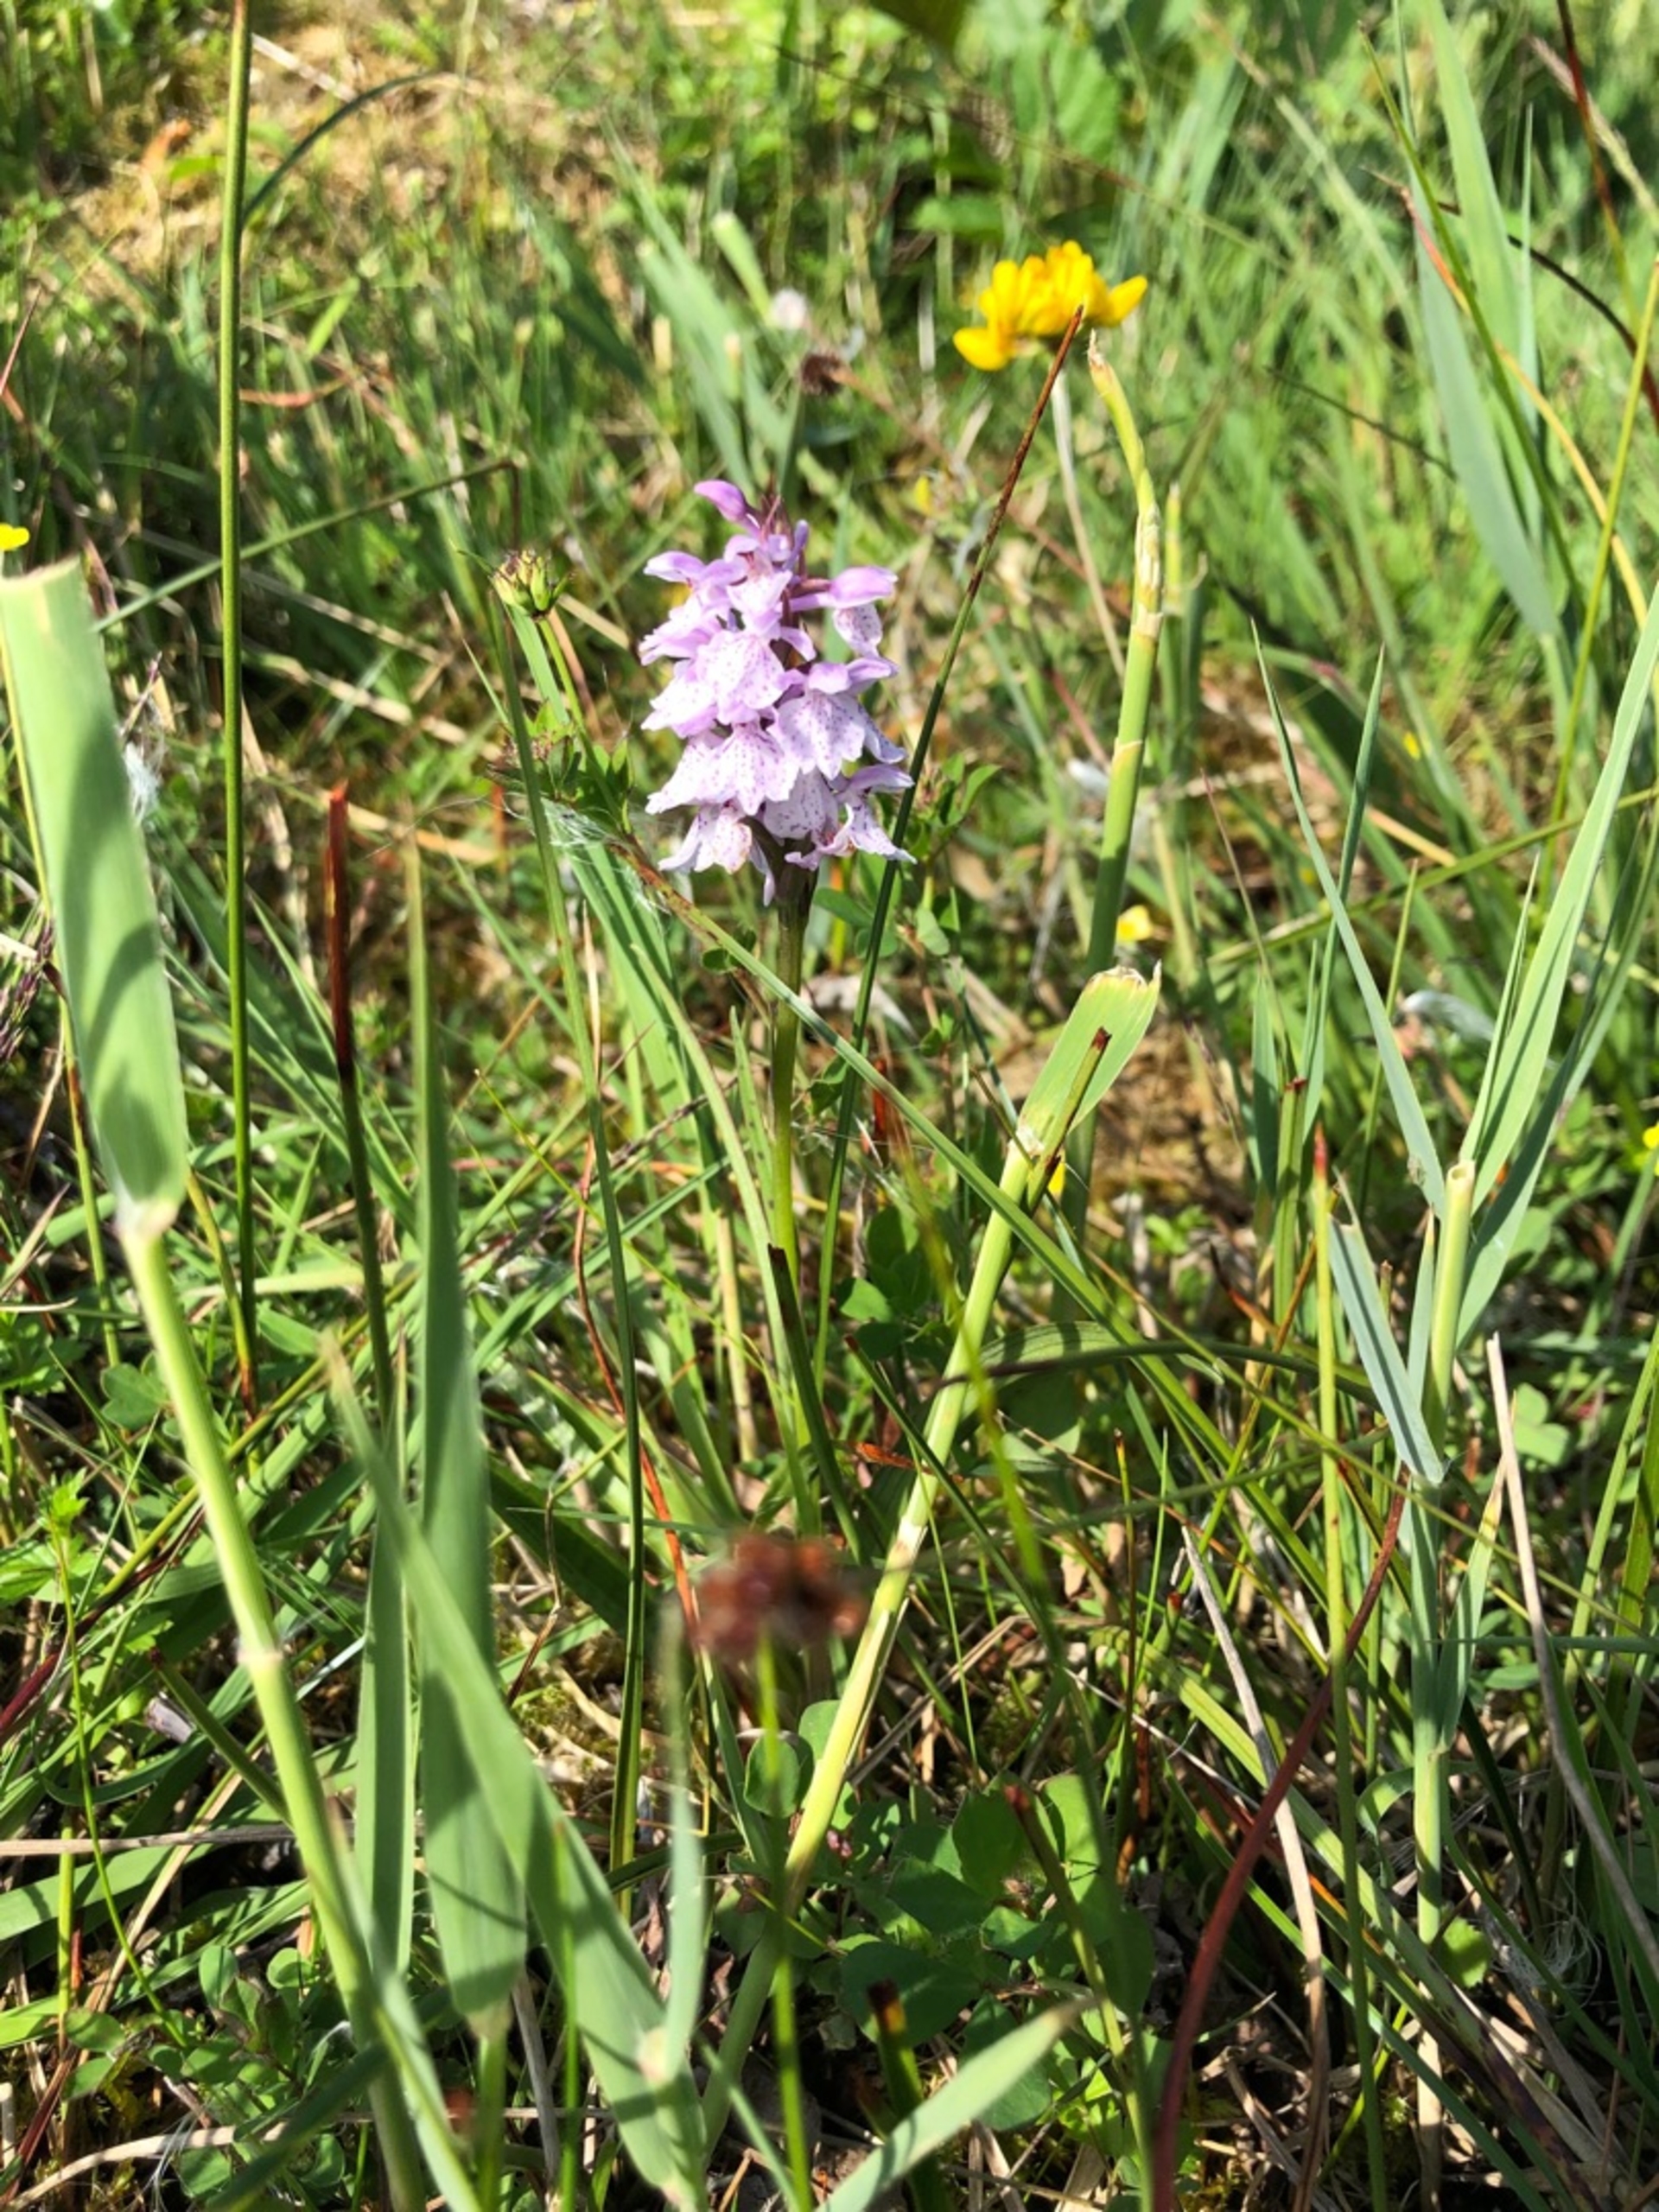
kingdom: Plantae
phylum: Tracheophyta
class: Liliopsida
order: Asparagales
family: Orchidaceae
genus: Dactylorhiza
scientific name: Dactylorhiza maculata
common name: Plettet gøgeurt
